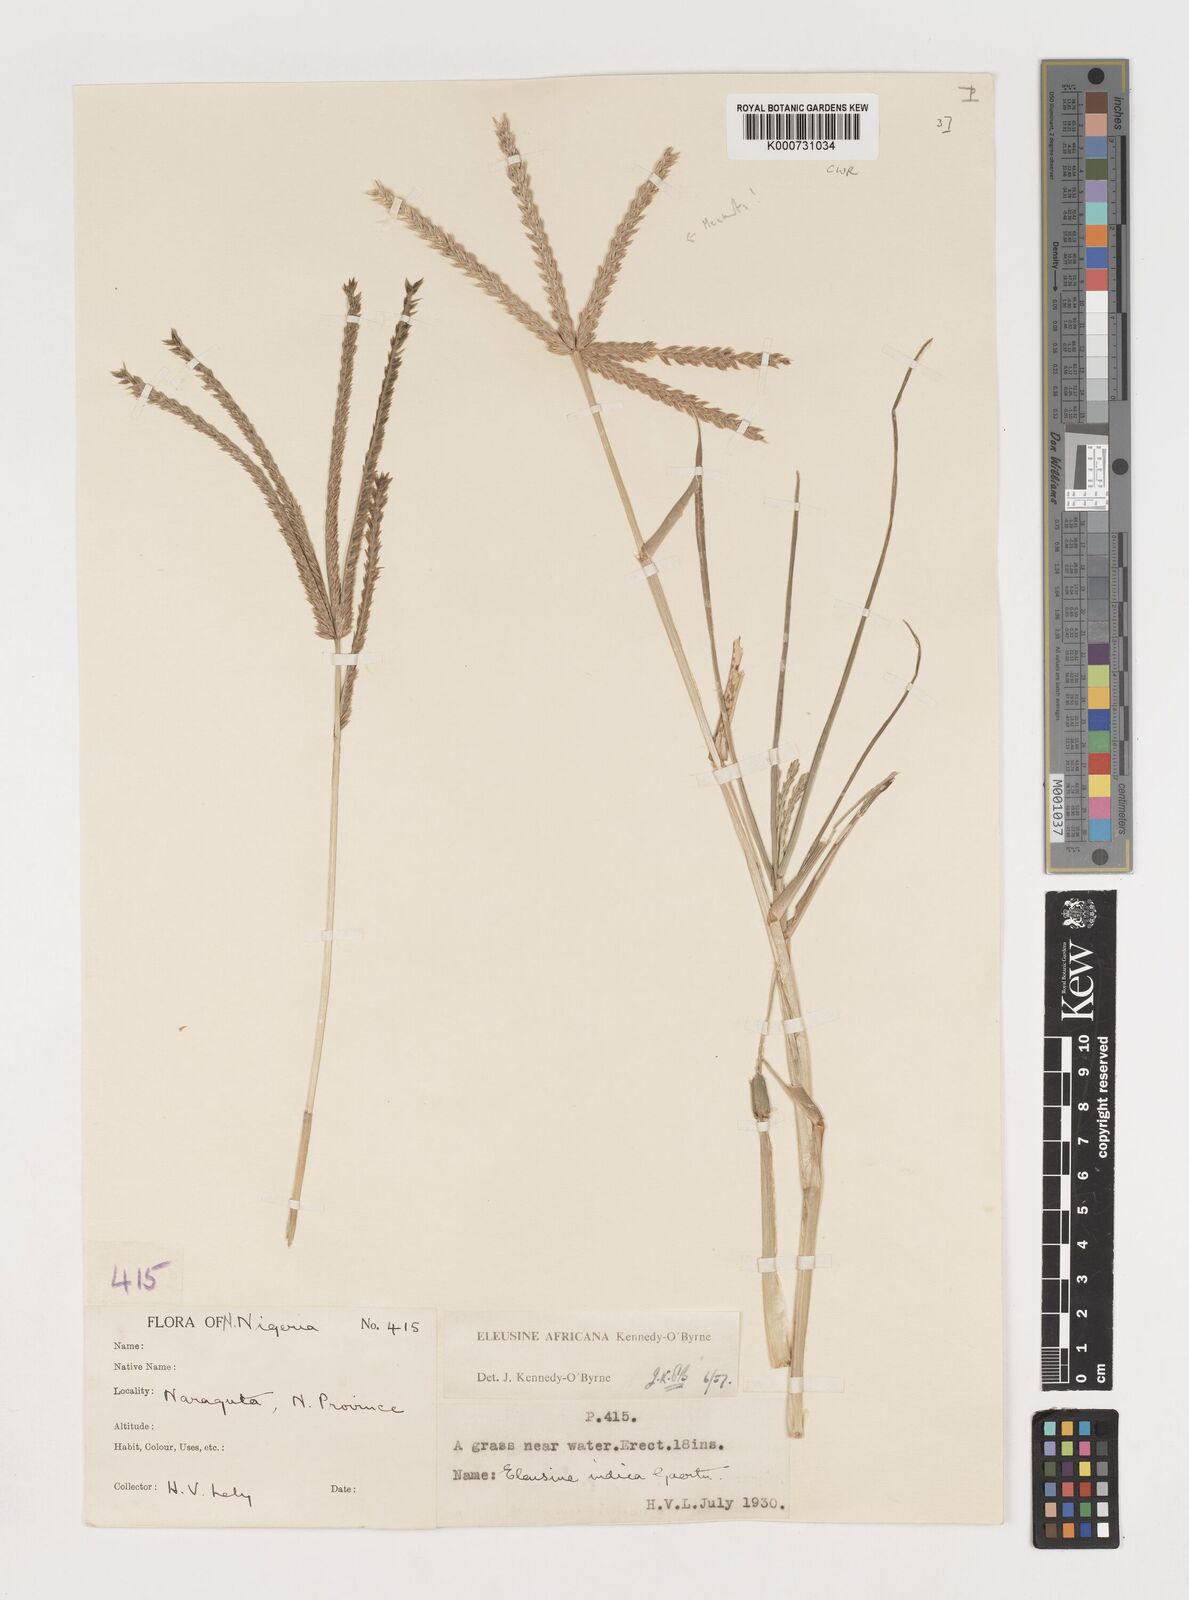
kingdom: Plantae
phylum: Tracheophyta
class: Liliopsida
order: Poales
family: Poaceae
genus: Eleusine
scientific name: Eleusine africana
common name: Wild african finger millet
